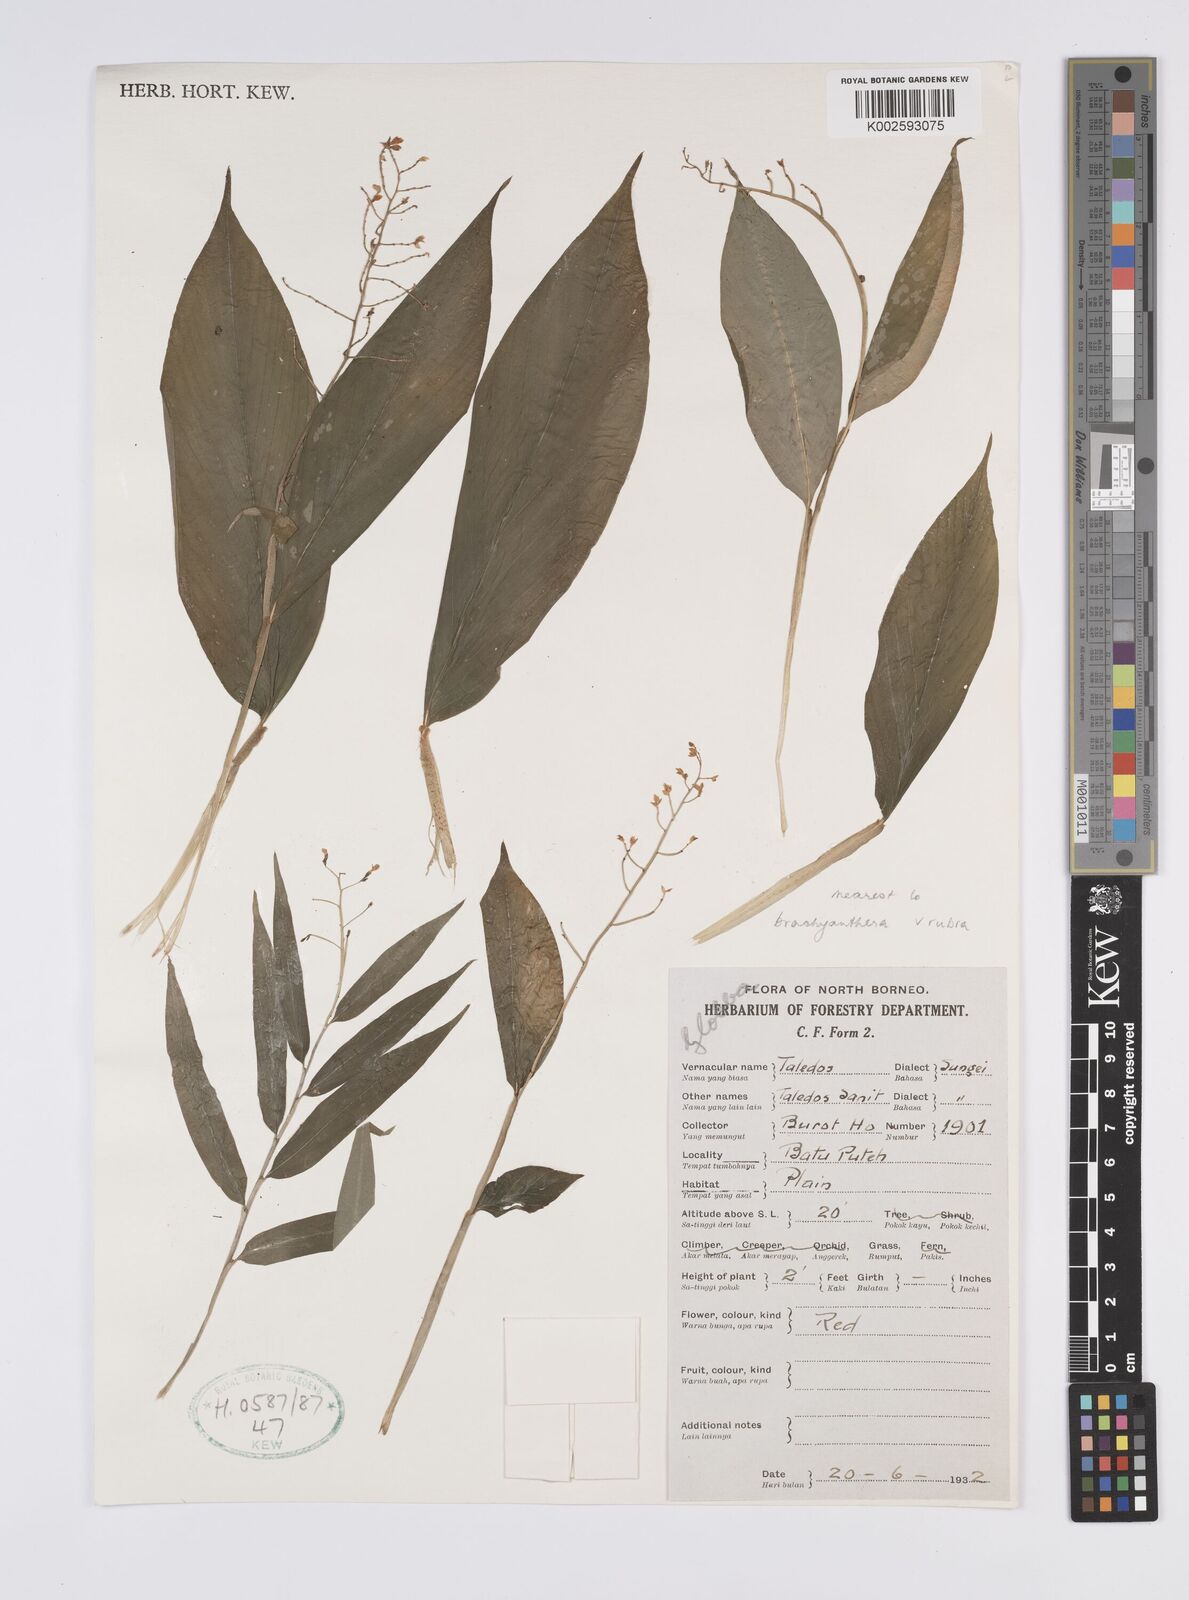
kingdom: Plantae
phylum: Tracheophyta
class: Liliopsida
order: Zingiberales
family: Zingiberaceae
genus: Globba
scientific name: Globba brachyanthera
